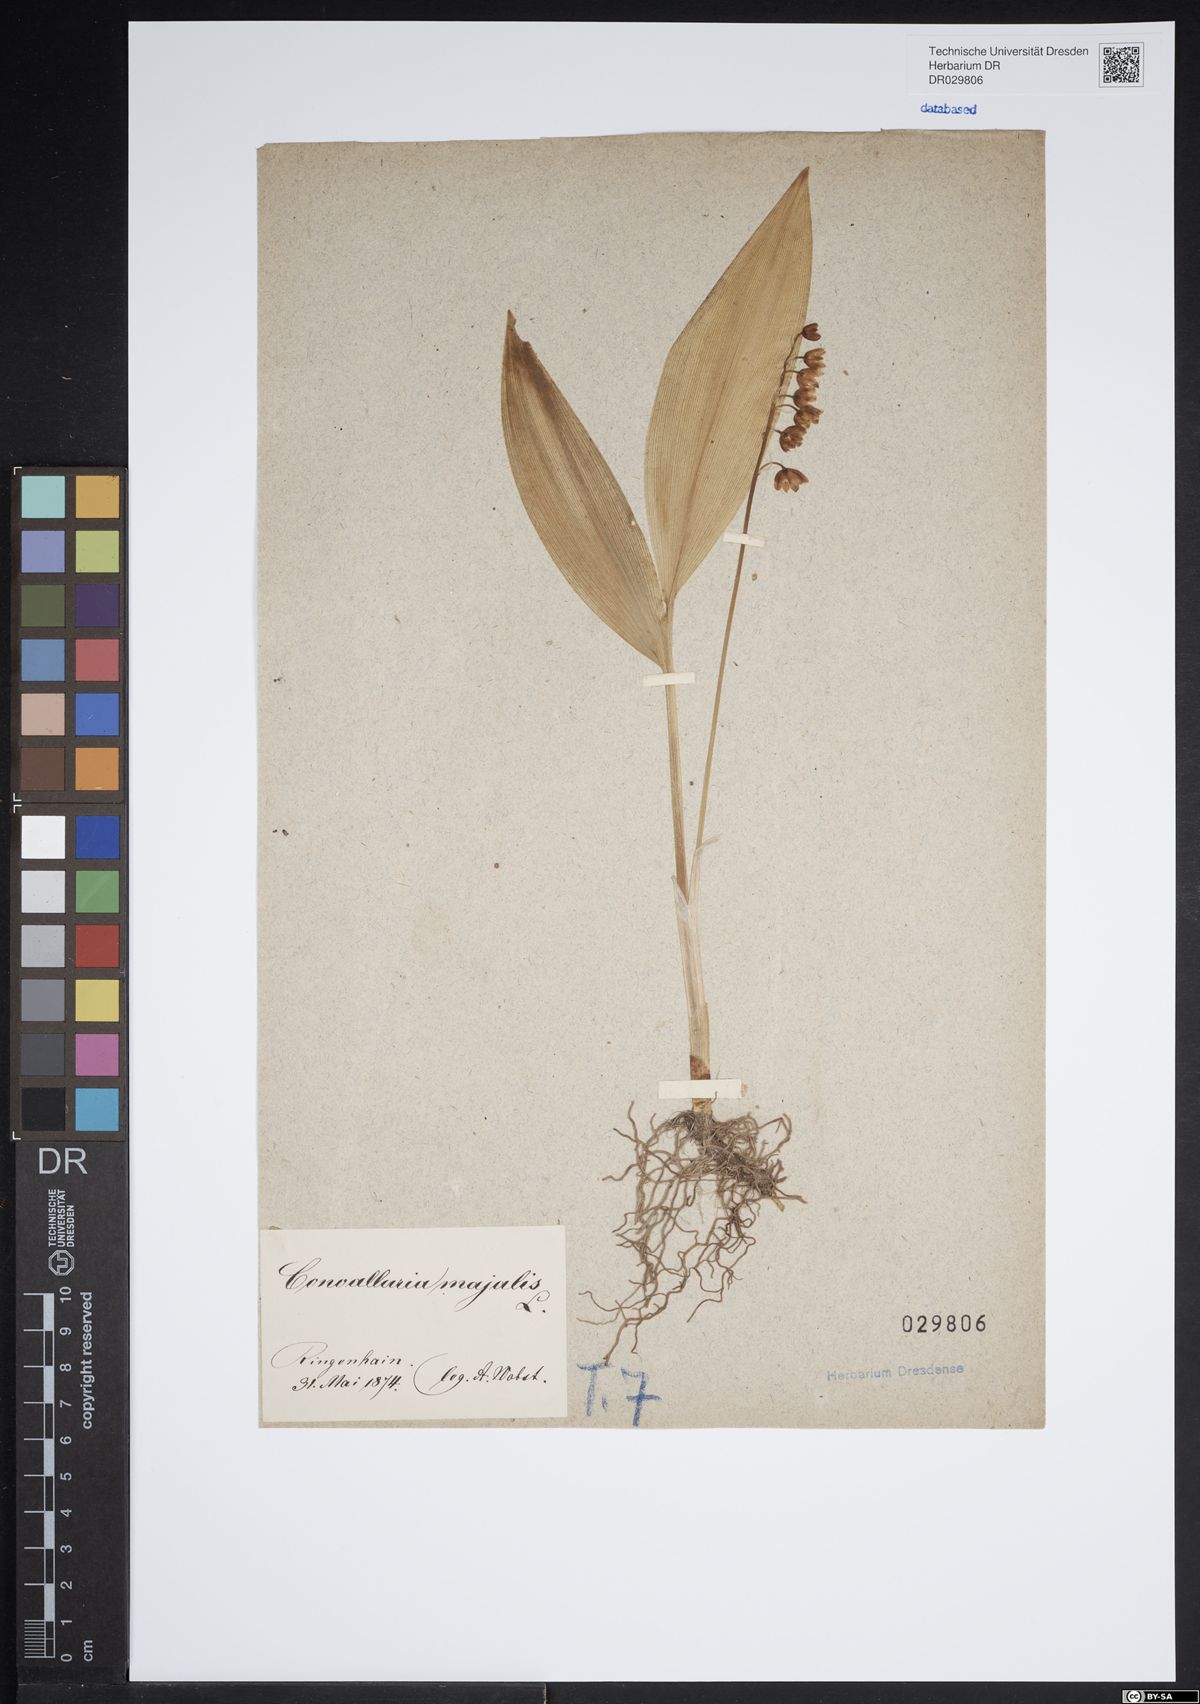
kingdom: Plantae
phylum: Tracheophyta
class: Liliopsida
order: Asparagales
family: Asparagaceae
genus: Convallaria
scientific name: Convallaria majalis
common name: Lily-of-the-valley
